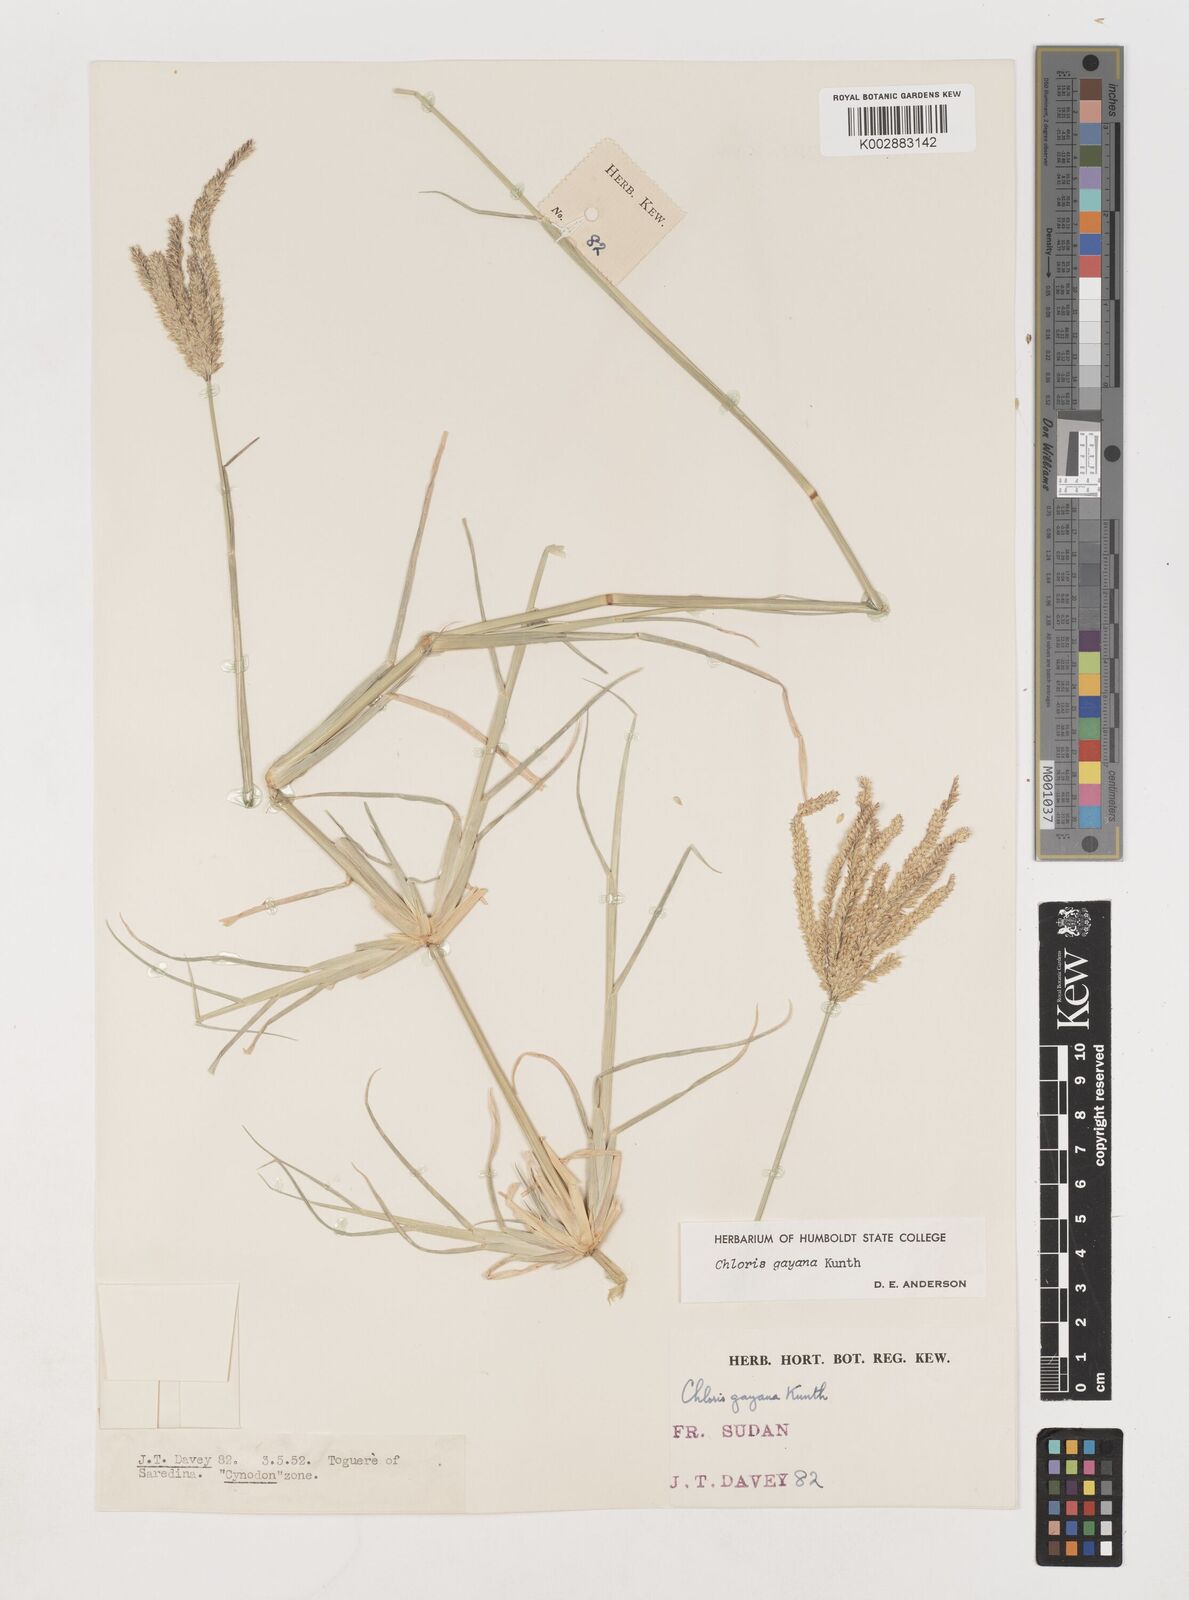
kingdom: Plantae
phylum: Tracheophyta
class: Liliopsida
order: Poales
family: Poaceae
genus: Chloris
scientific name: Chloris gayana
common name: Rhodes grass
